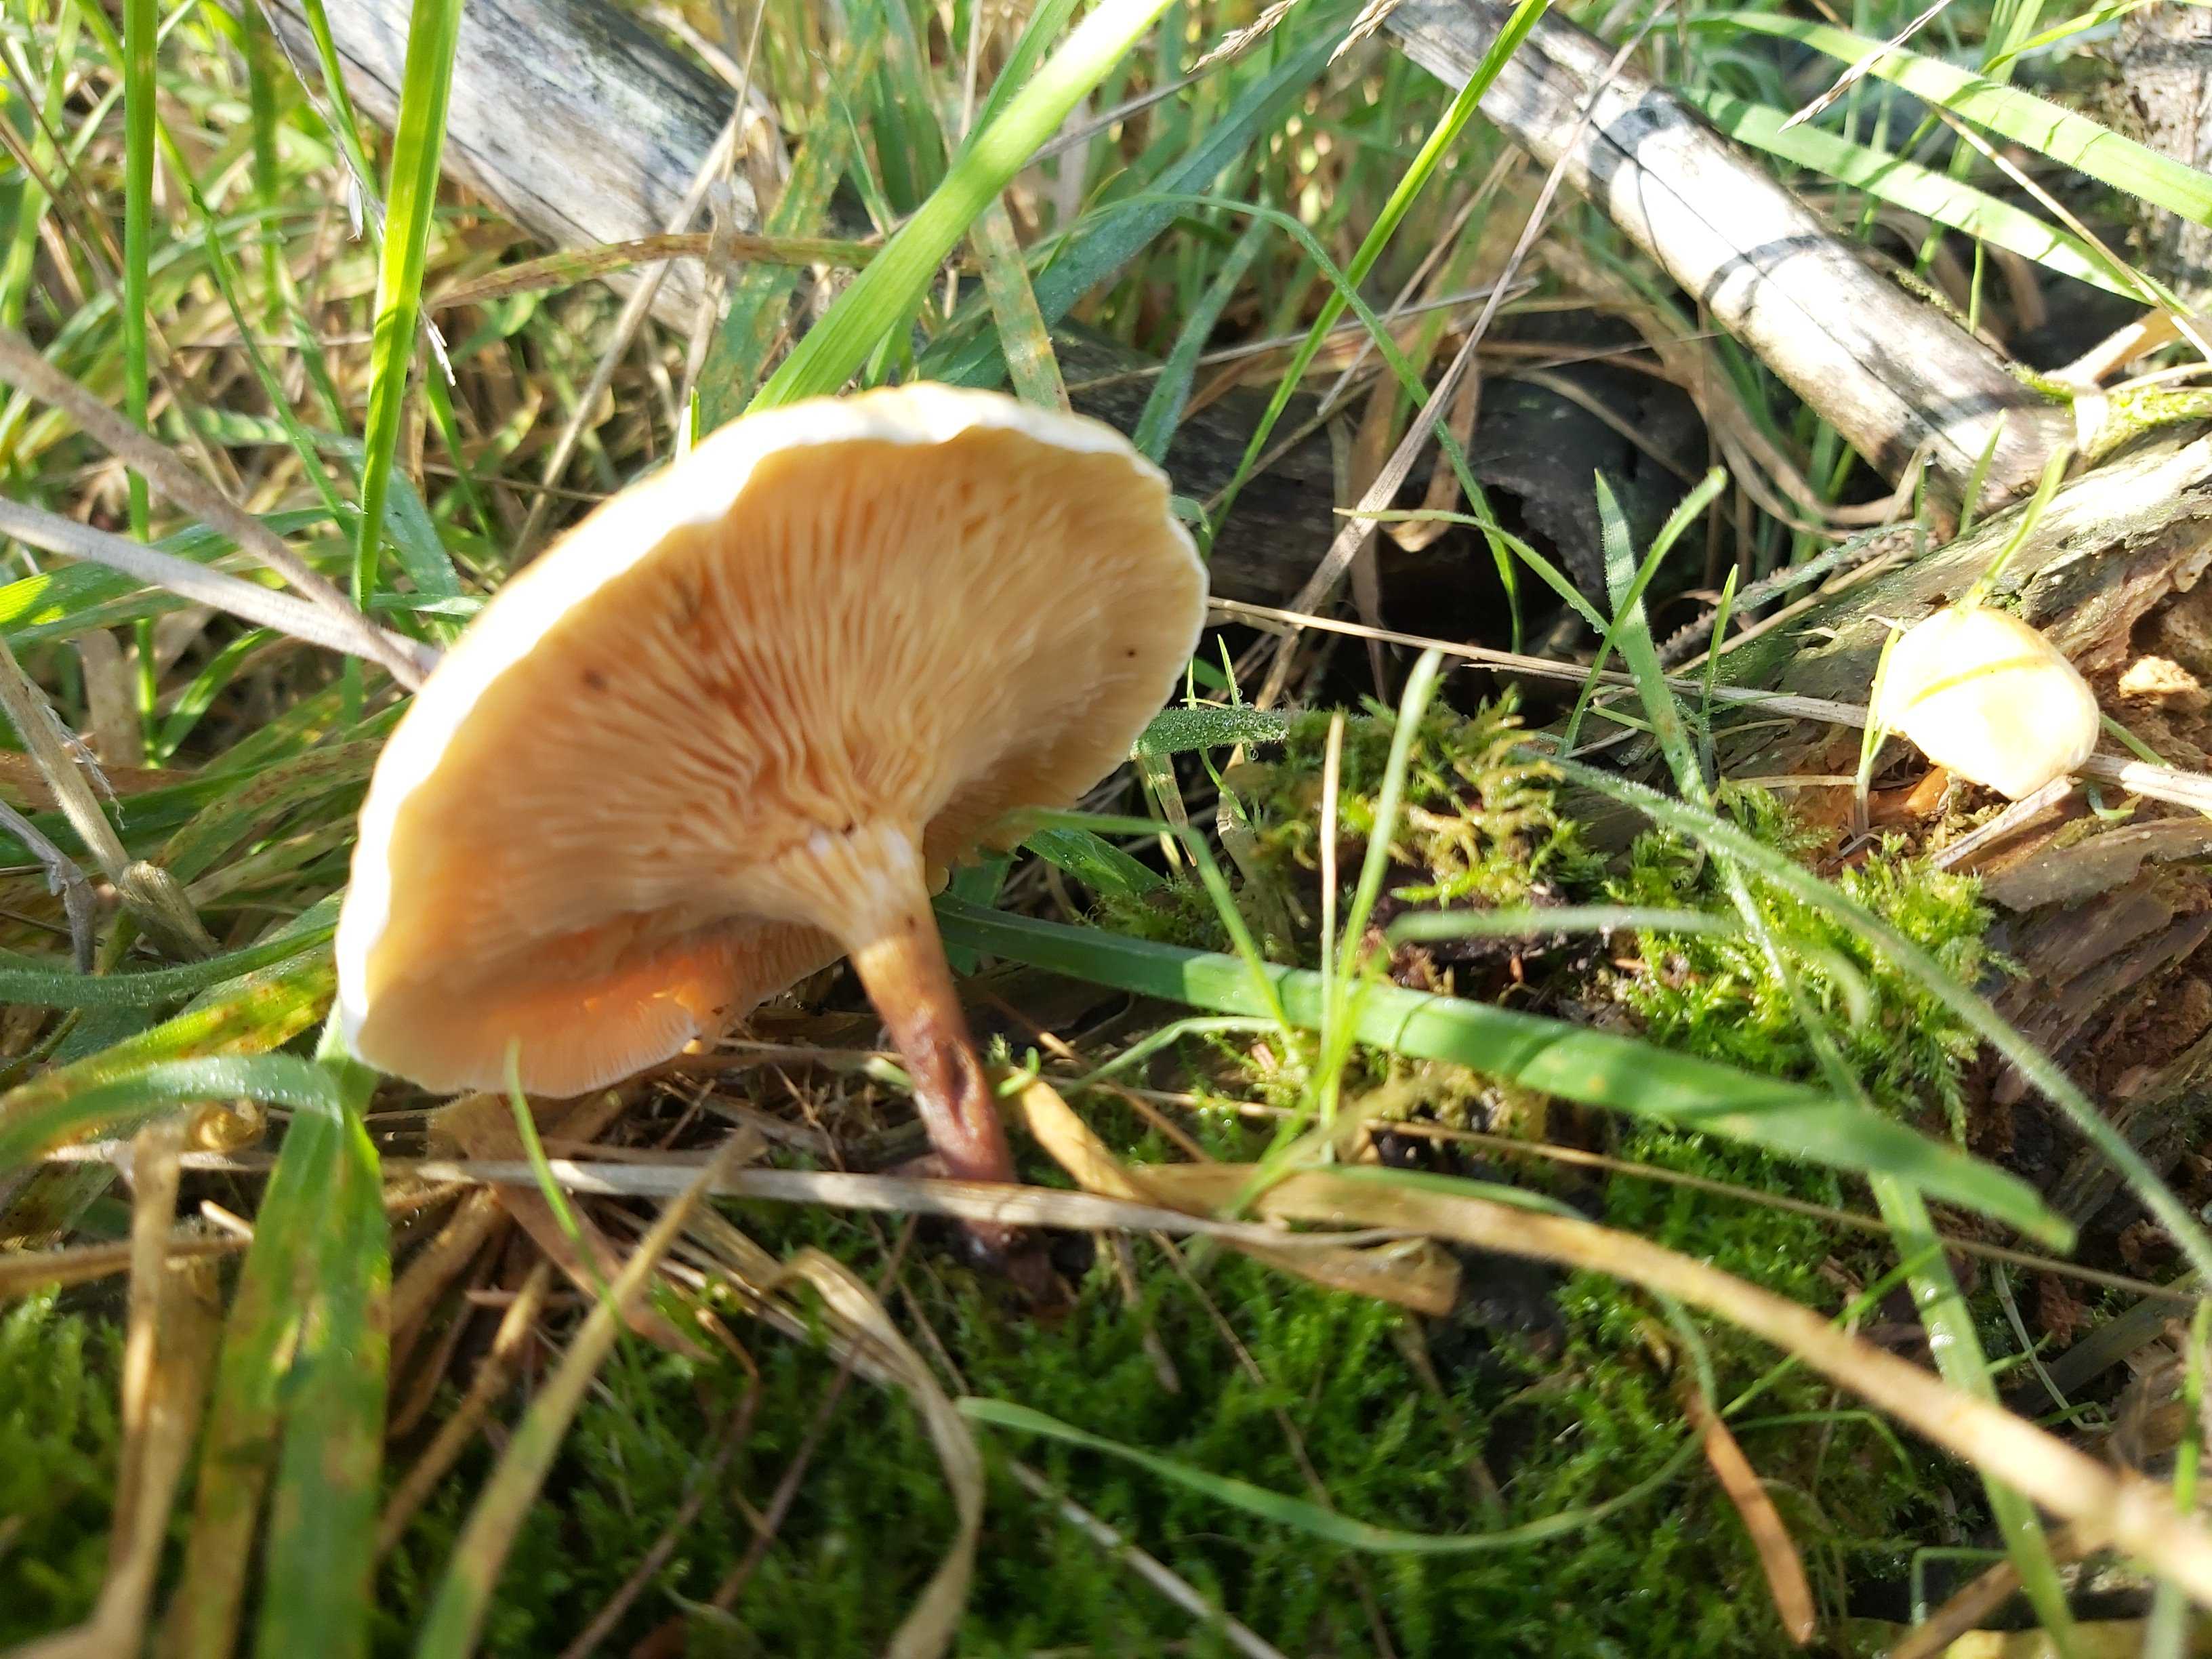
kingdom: Fungi
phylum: Basidiomycota
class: Agaricomycetes
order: Boletales
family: Hygrophoropsidaceae
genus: Hygrophoropsis
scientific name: Hygrophoropsis
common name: orangekantarel
